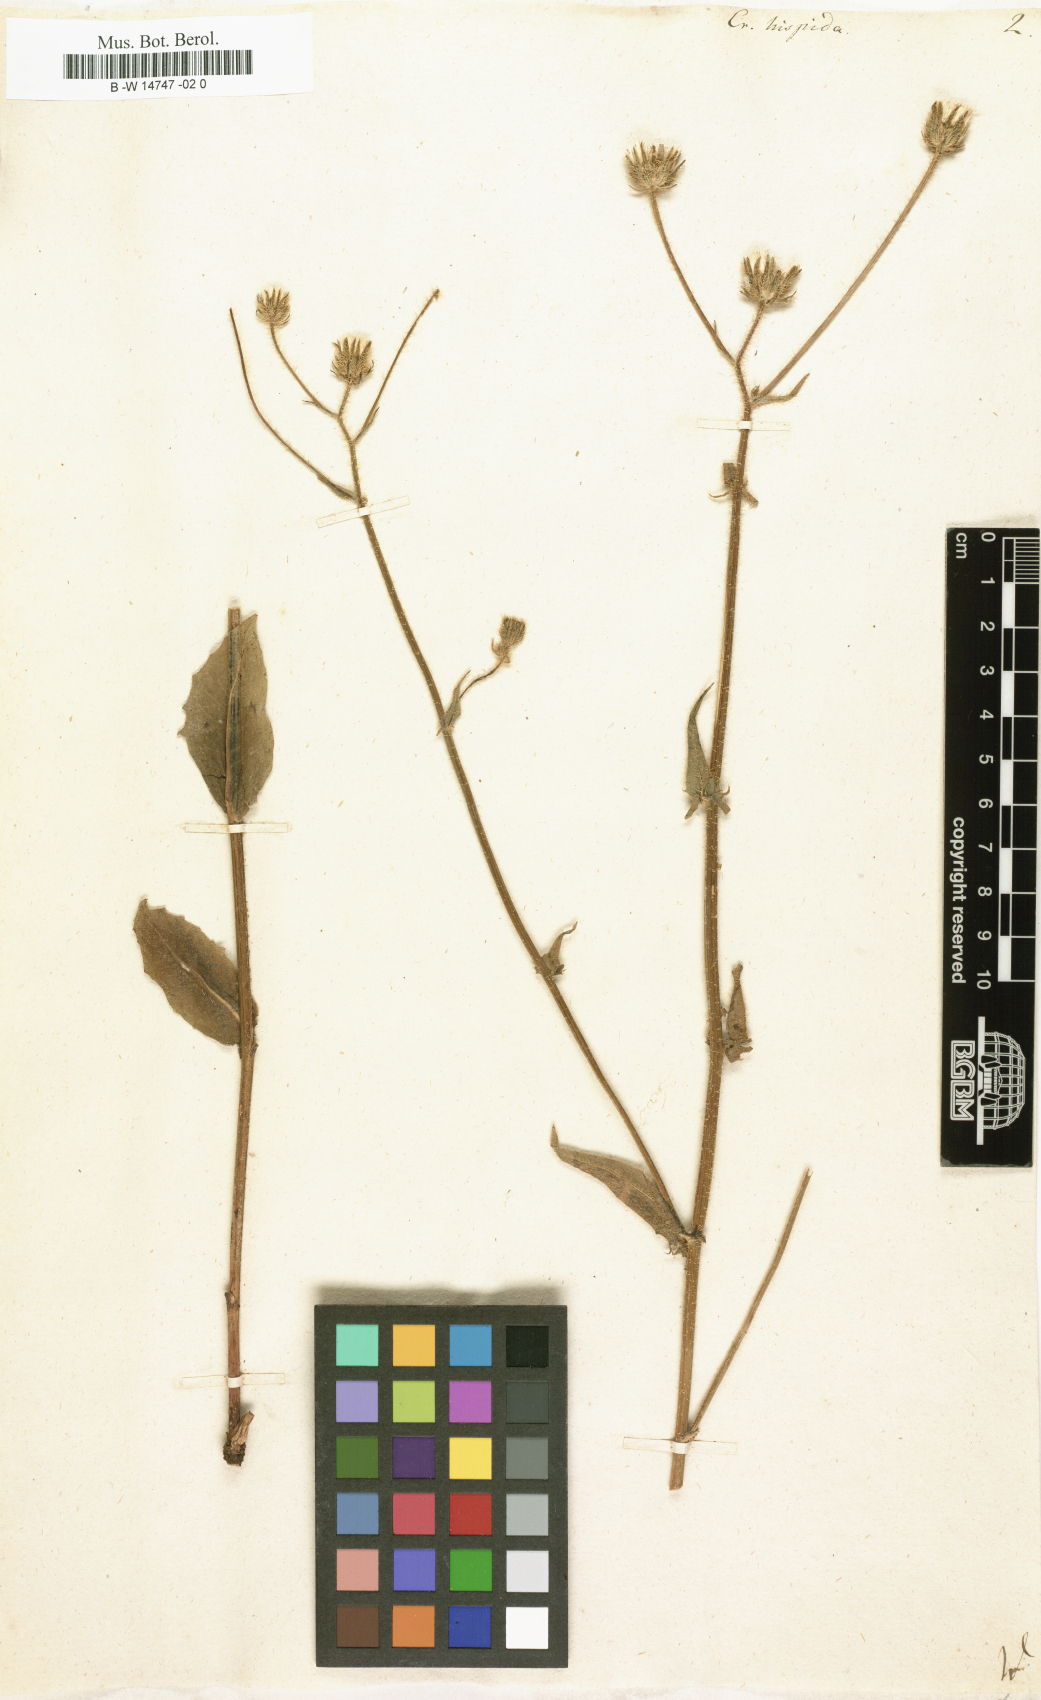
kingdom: Plantae
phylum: Tracheophyta
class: Magnoliopsida
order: Asterales
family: Asteraceae
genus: Crepis
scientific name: Crepis setosa
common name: Bristly hawk's-beard
